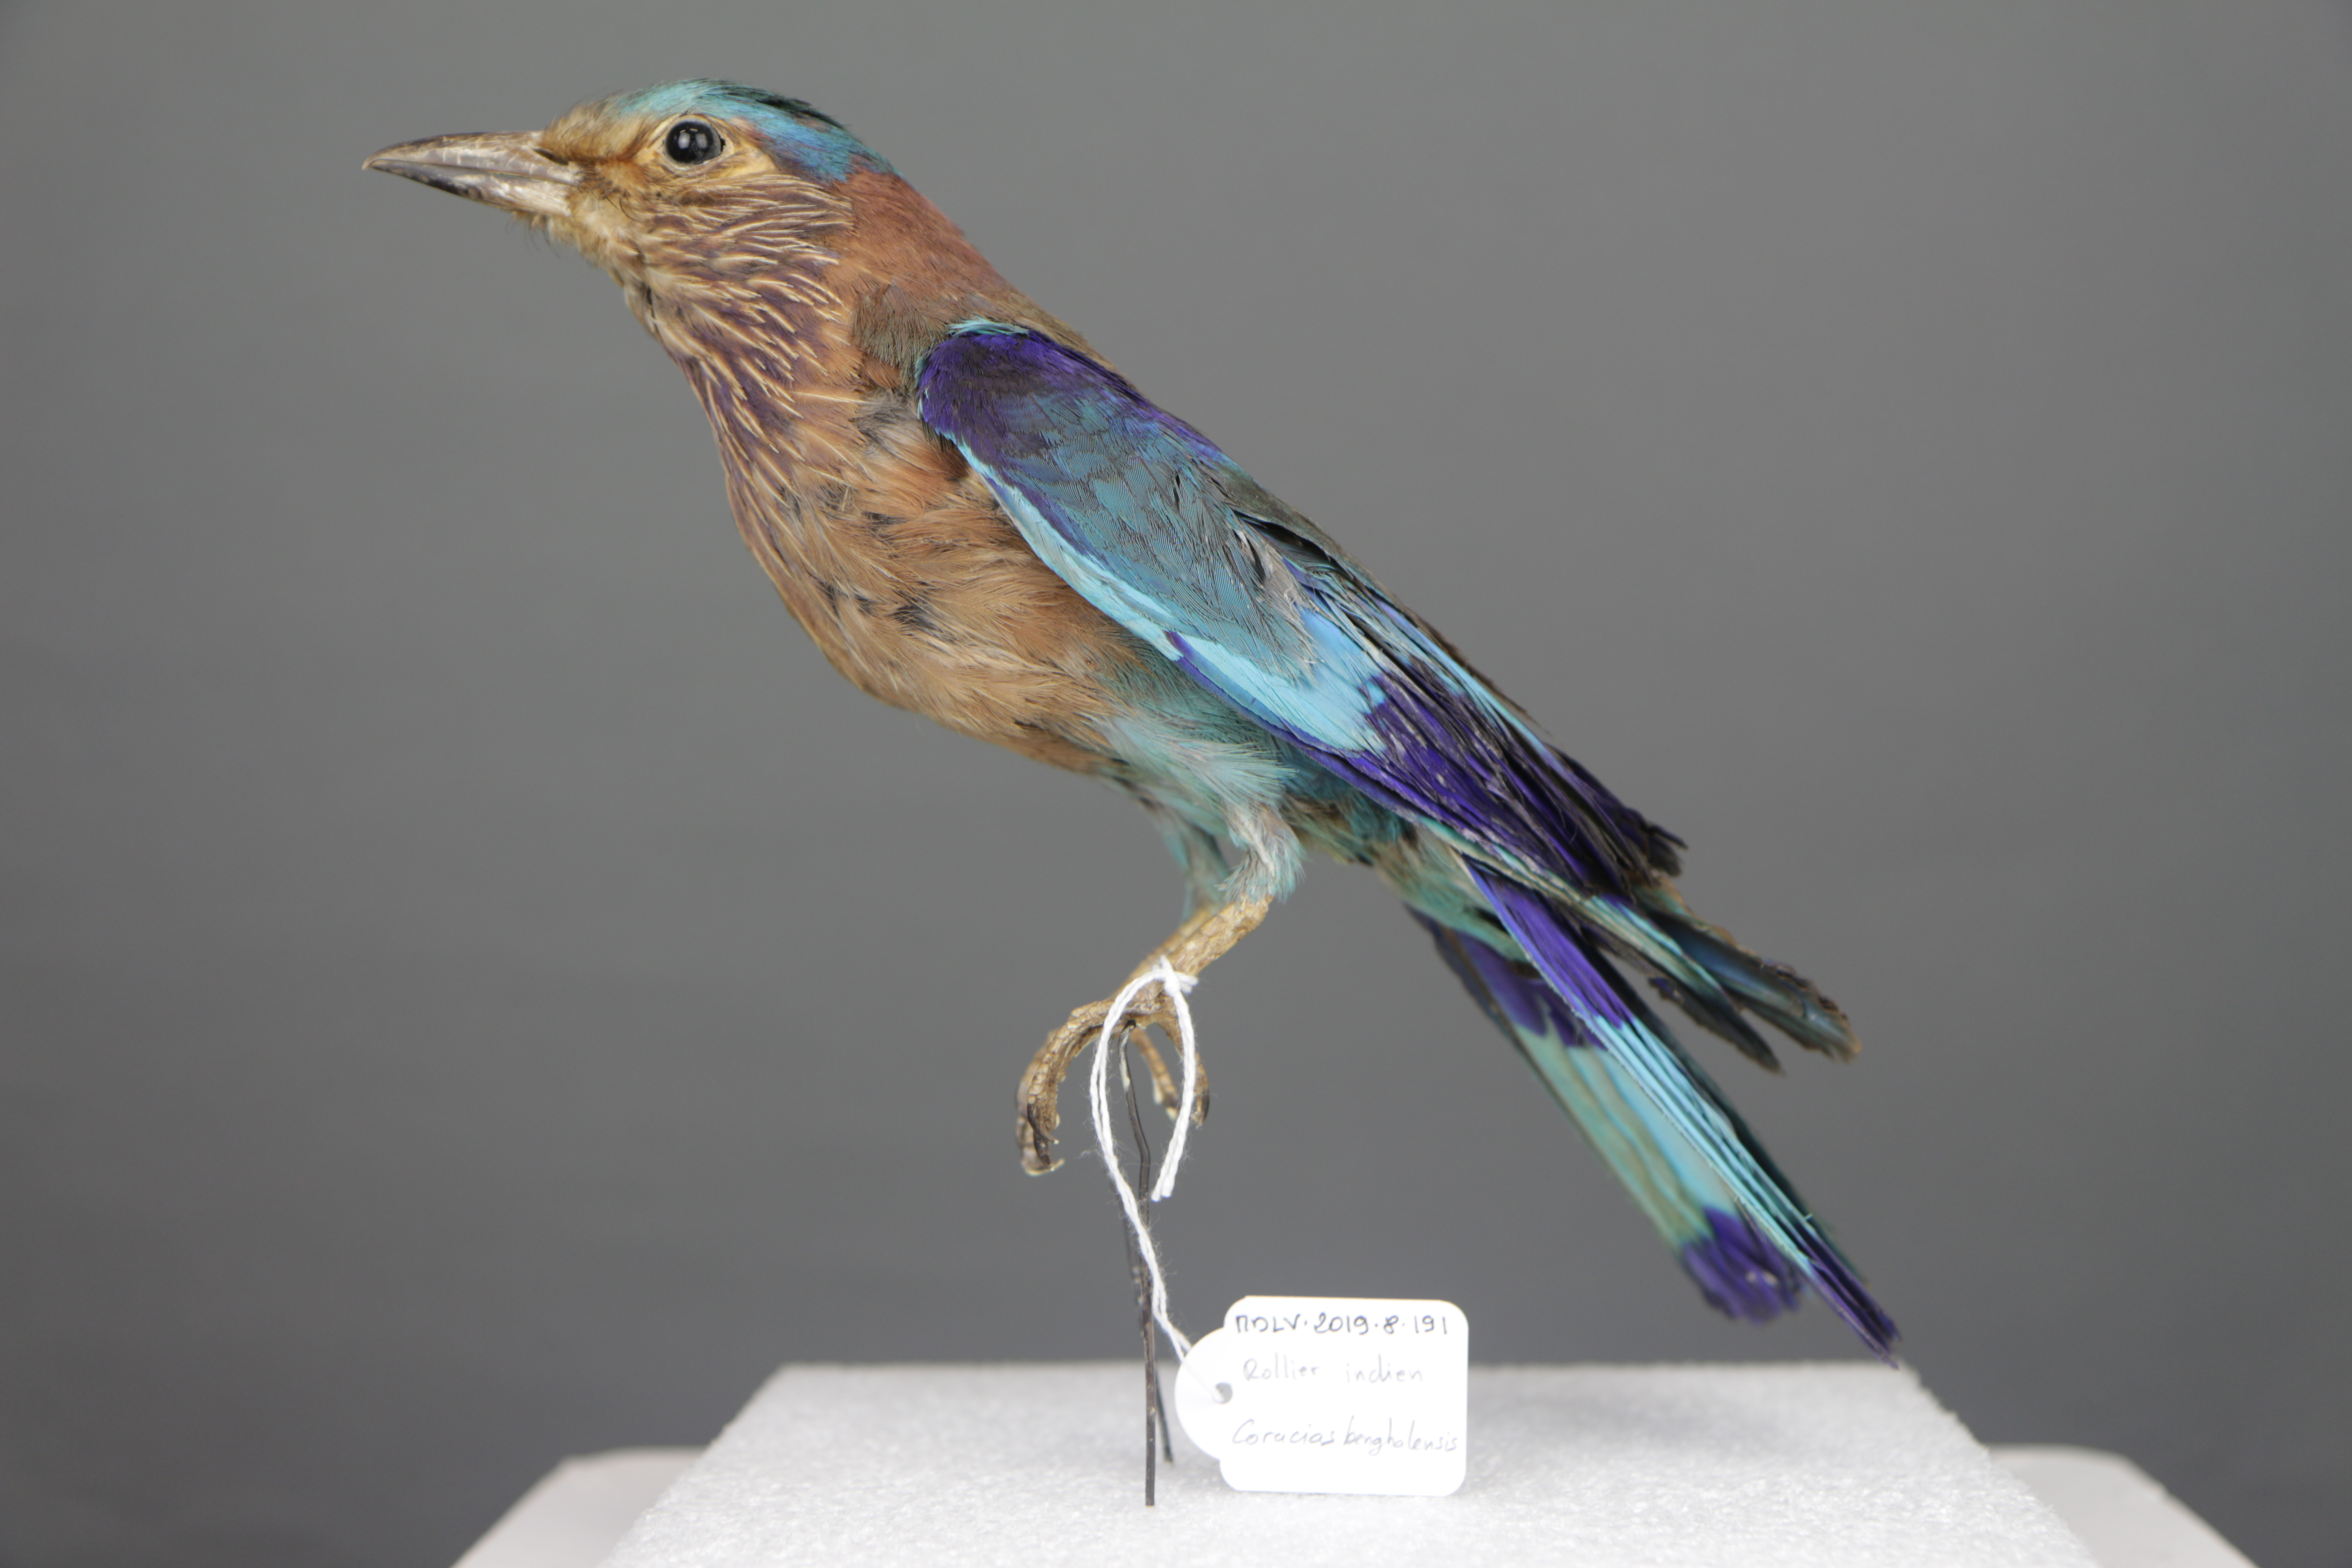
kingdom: Animalia
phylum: Chordata
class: Aves
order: Coraciiformes
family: Coraciidae
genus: Coracias
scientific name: Coracias benghalensis
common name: Indian roller
